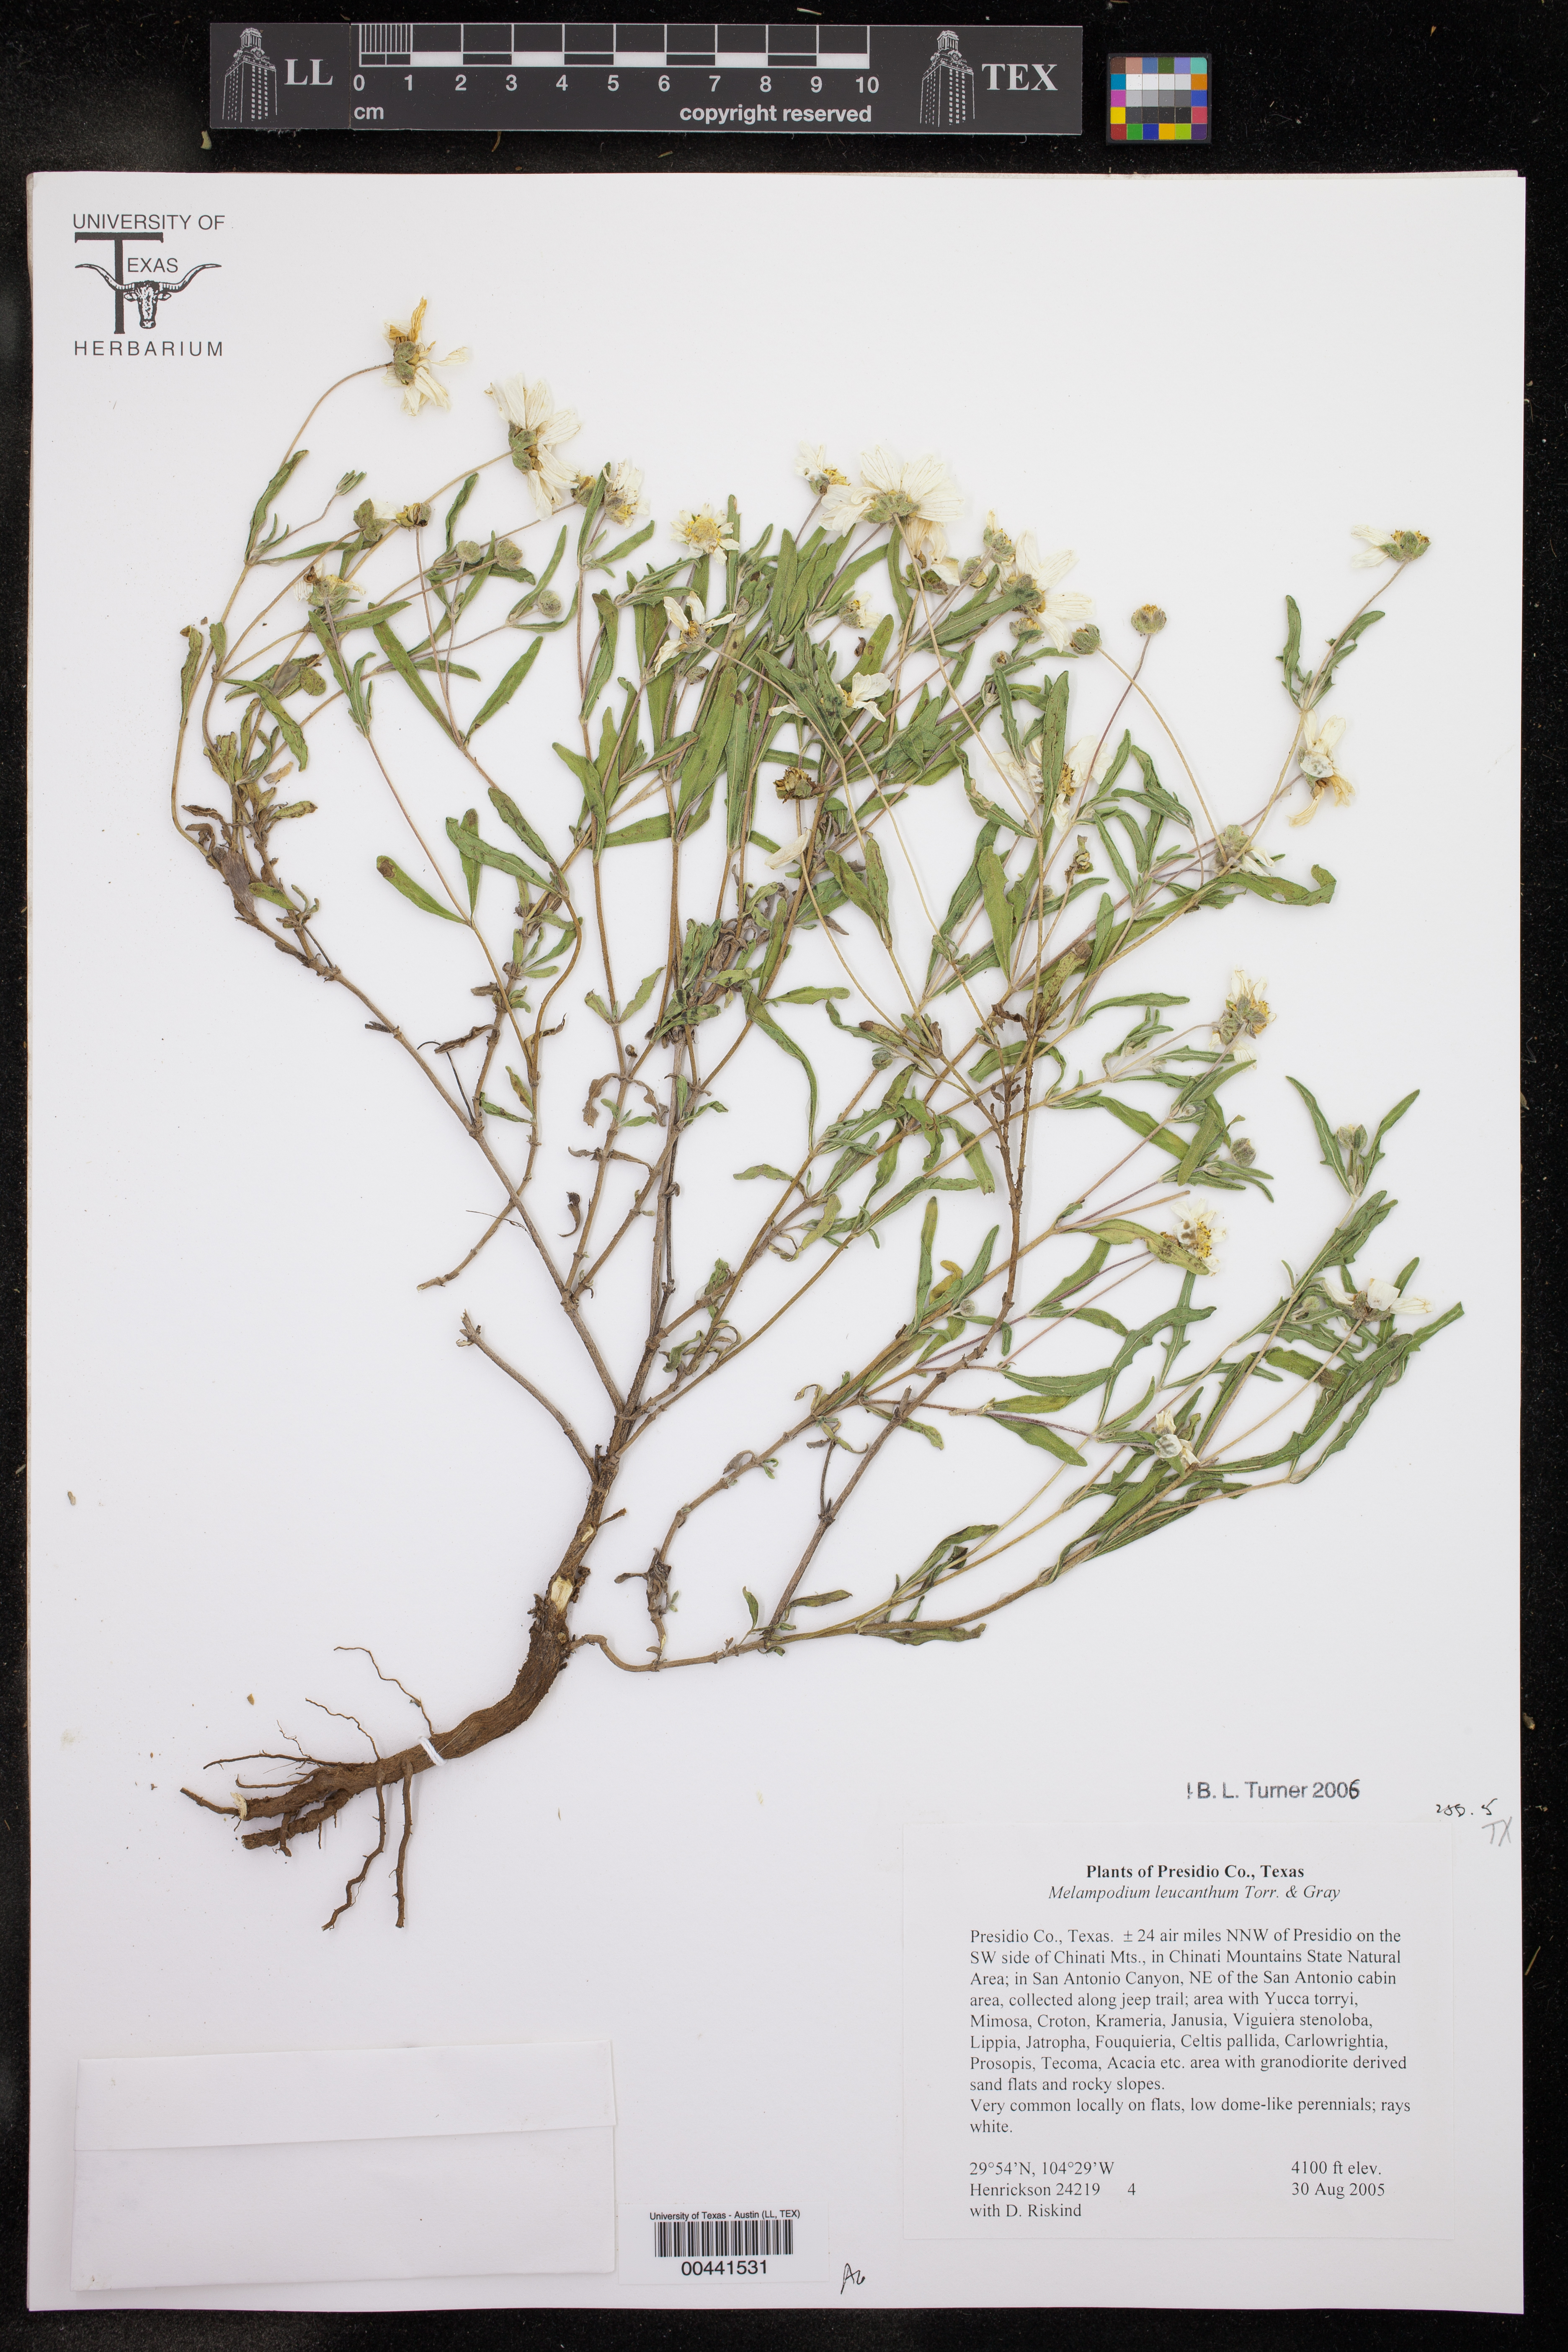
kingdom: Plantae
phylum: Tracheophyta
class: Magnoliopsida
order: Asterales
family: Asteraceae
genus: Melampodium
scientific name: Melampodium leucanthum
